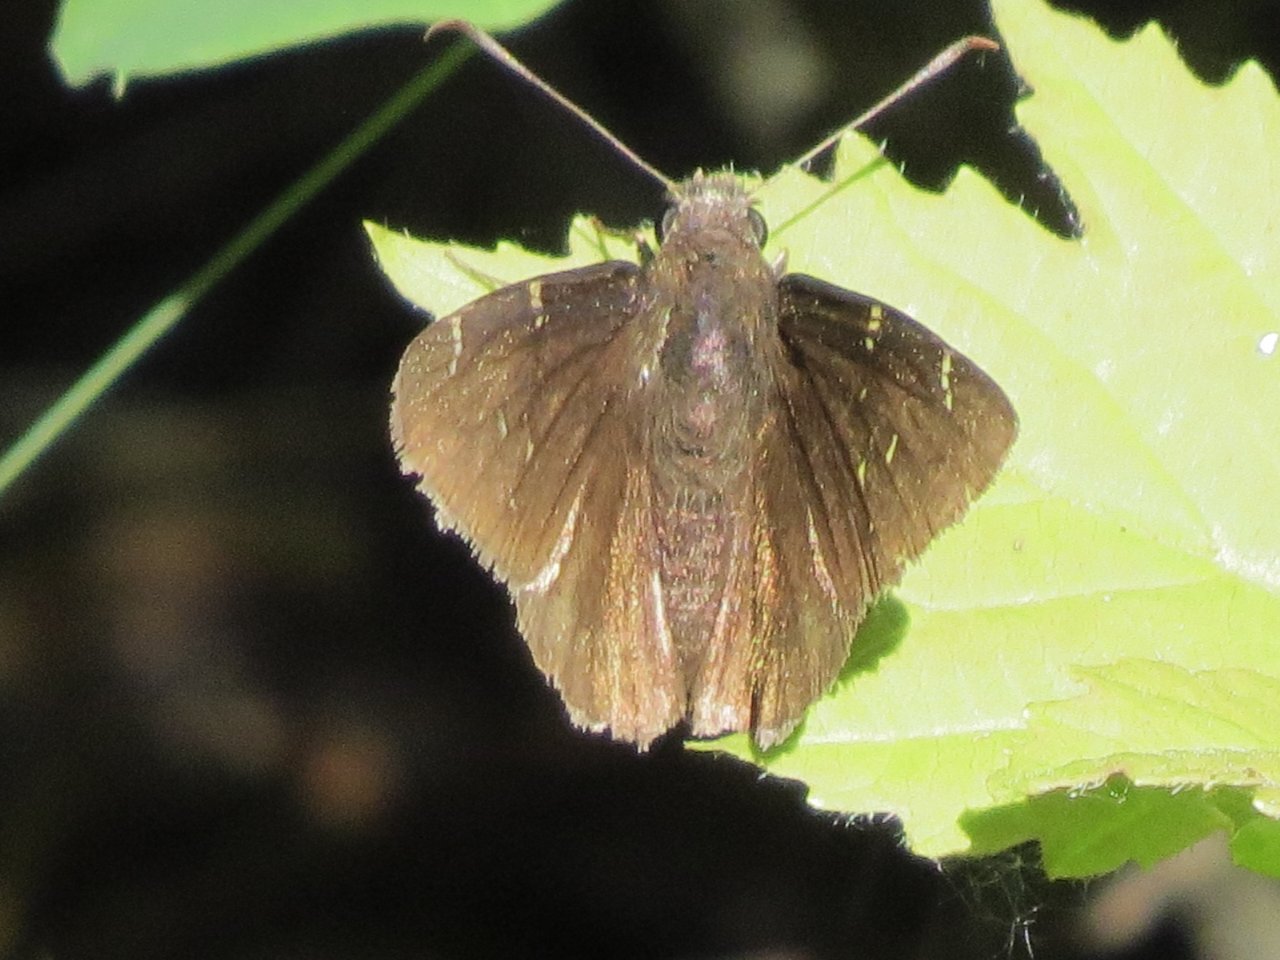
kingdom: Animalia
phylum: Arthropoda
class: Insecta
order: Lepidoptera
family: Hesperiidae
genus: Autochton
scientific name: Autochton
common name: Northern Cloudywing
